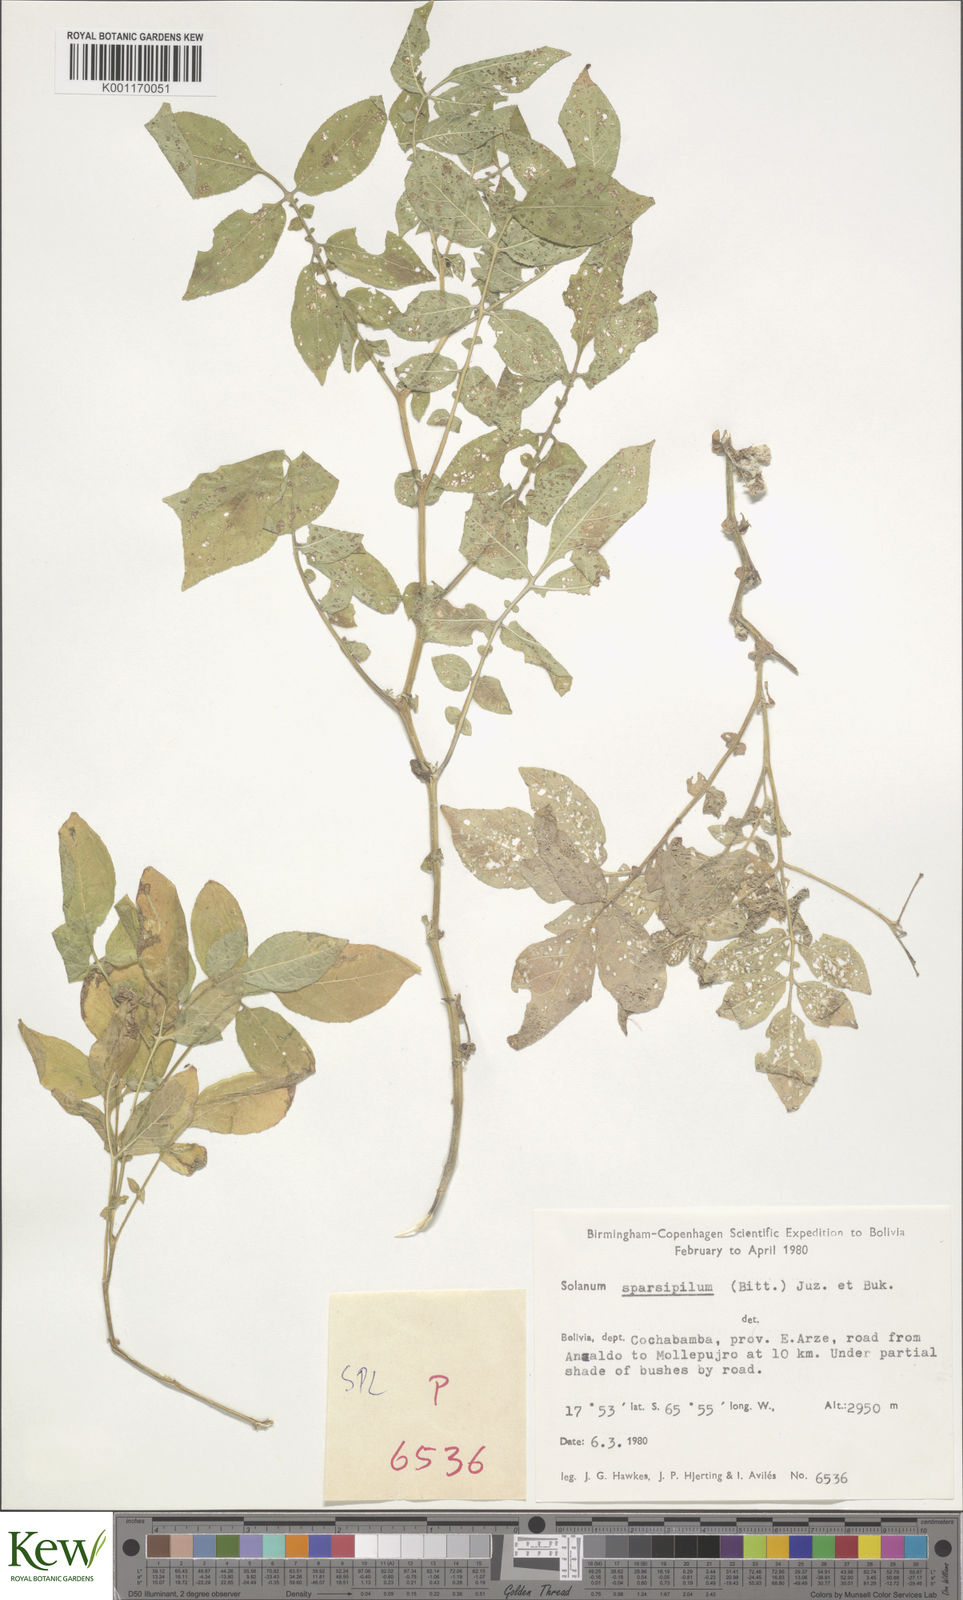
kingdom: Plantae
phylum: Tracheophyta
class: Magnoliopsida
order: Solanales
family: Solanaceae
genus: Solanum
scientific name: Solanum brevicaule
